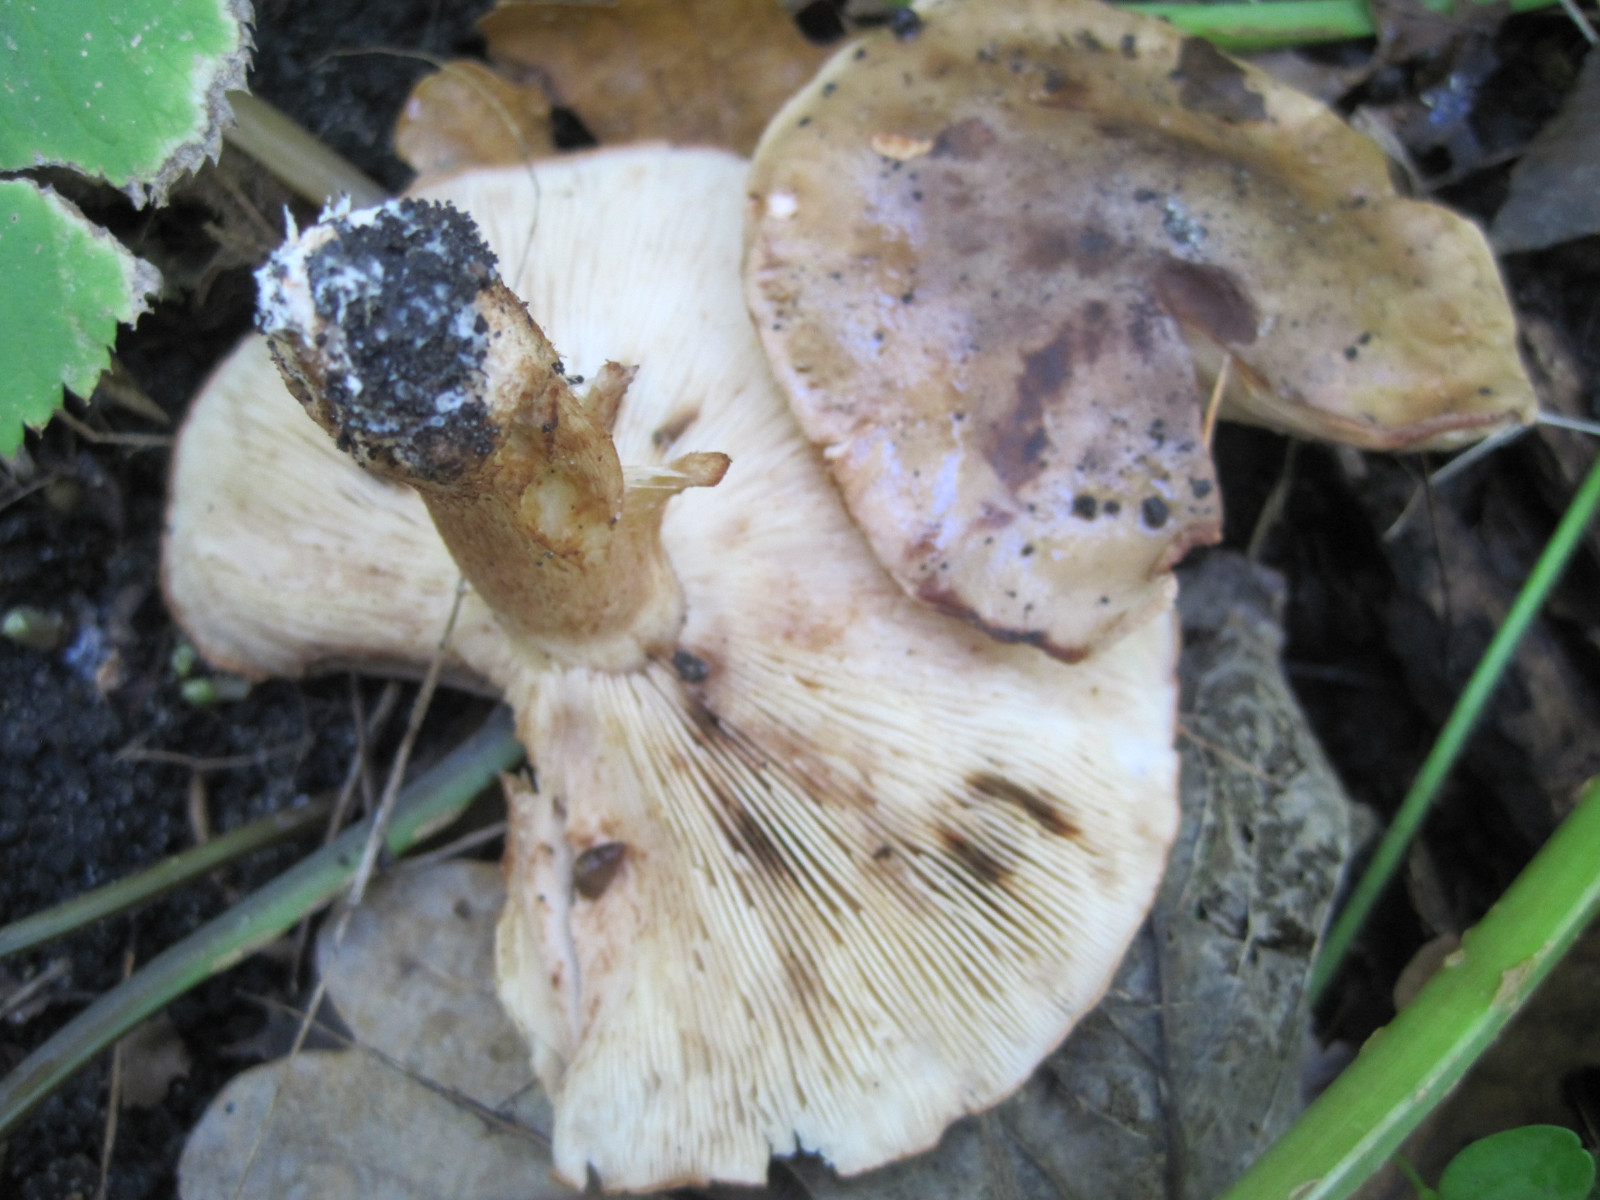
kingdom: Fungi
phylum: Basidiomycota
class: Agaricomycetes
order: Agaricales
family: Tricholomataceae
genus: Tricholoma
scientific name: Tricholoma populinum
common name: poppel-ridderhat
